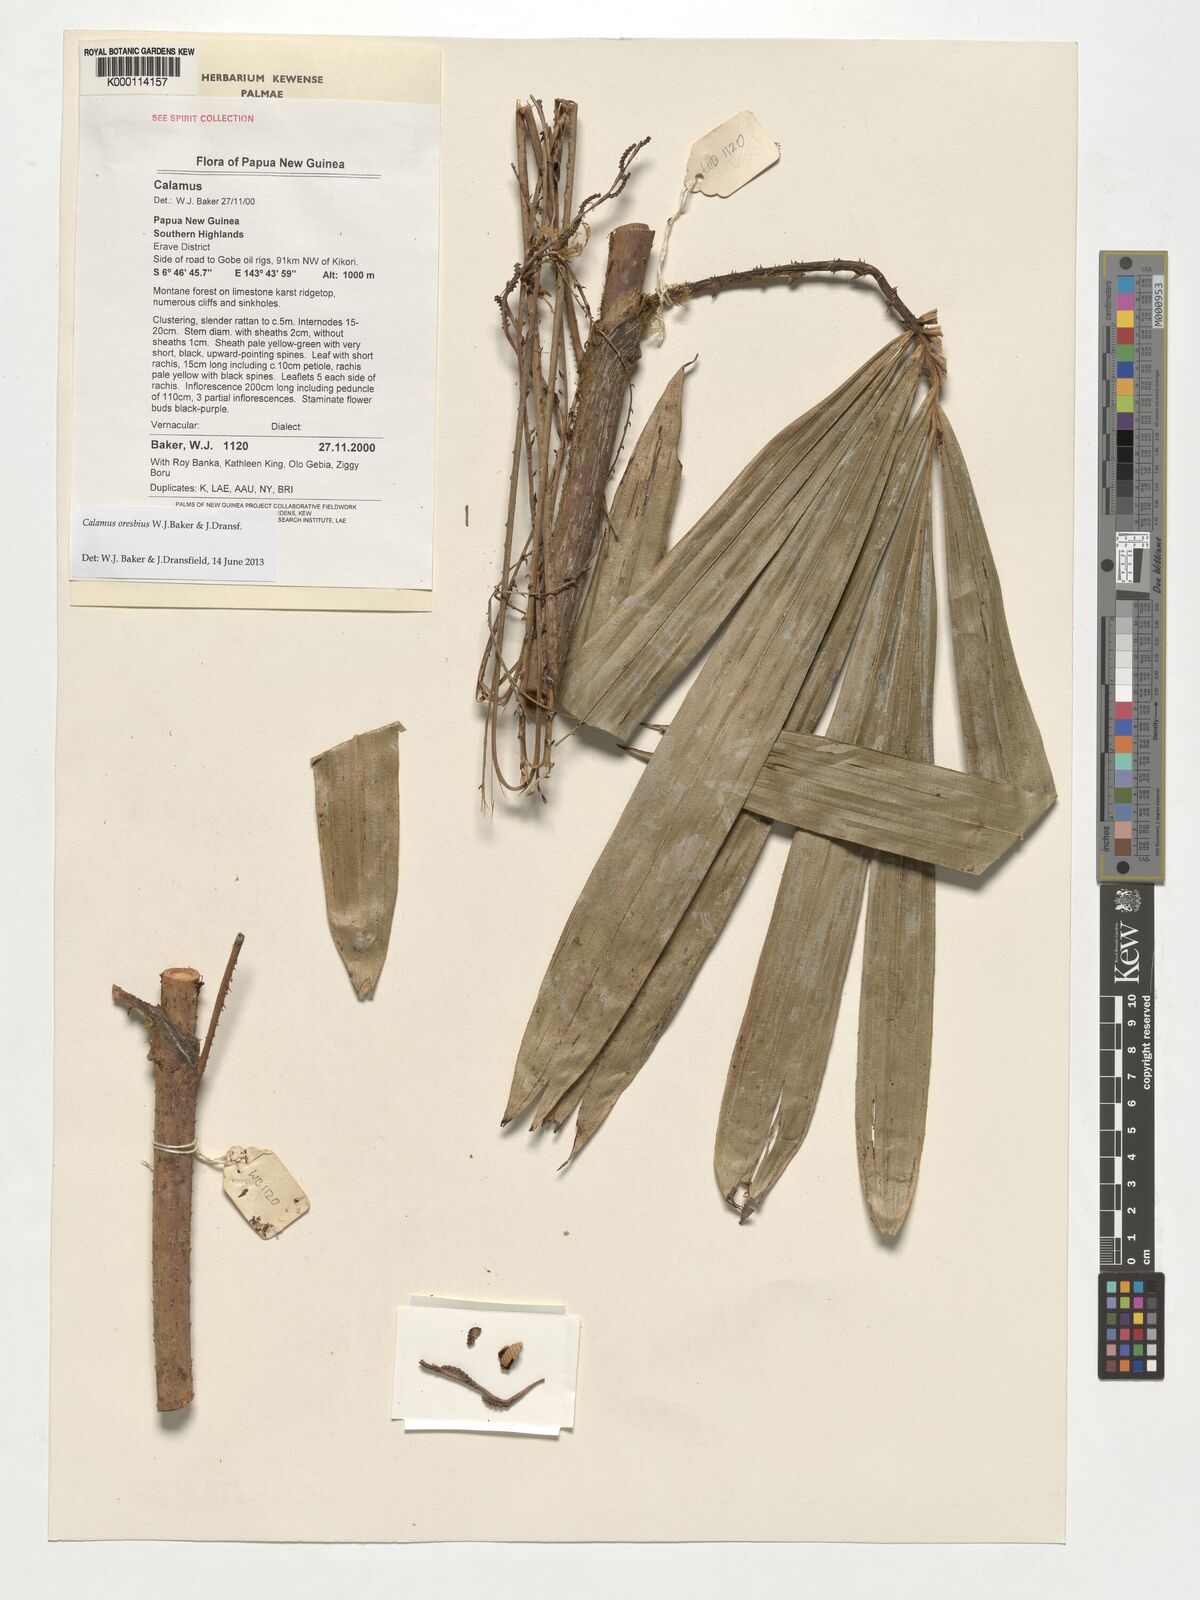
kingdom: Plantae
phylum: Tracheophyta
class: Liliopsida
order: Arecales
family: Arecaceae
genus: Calamus
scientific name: Calamus
